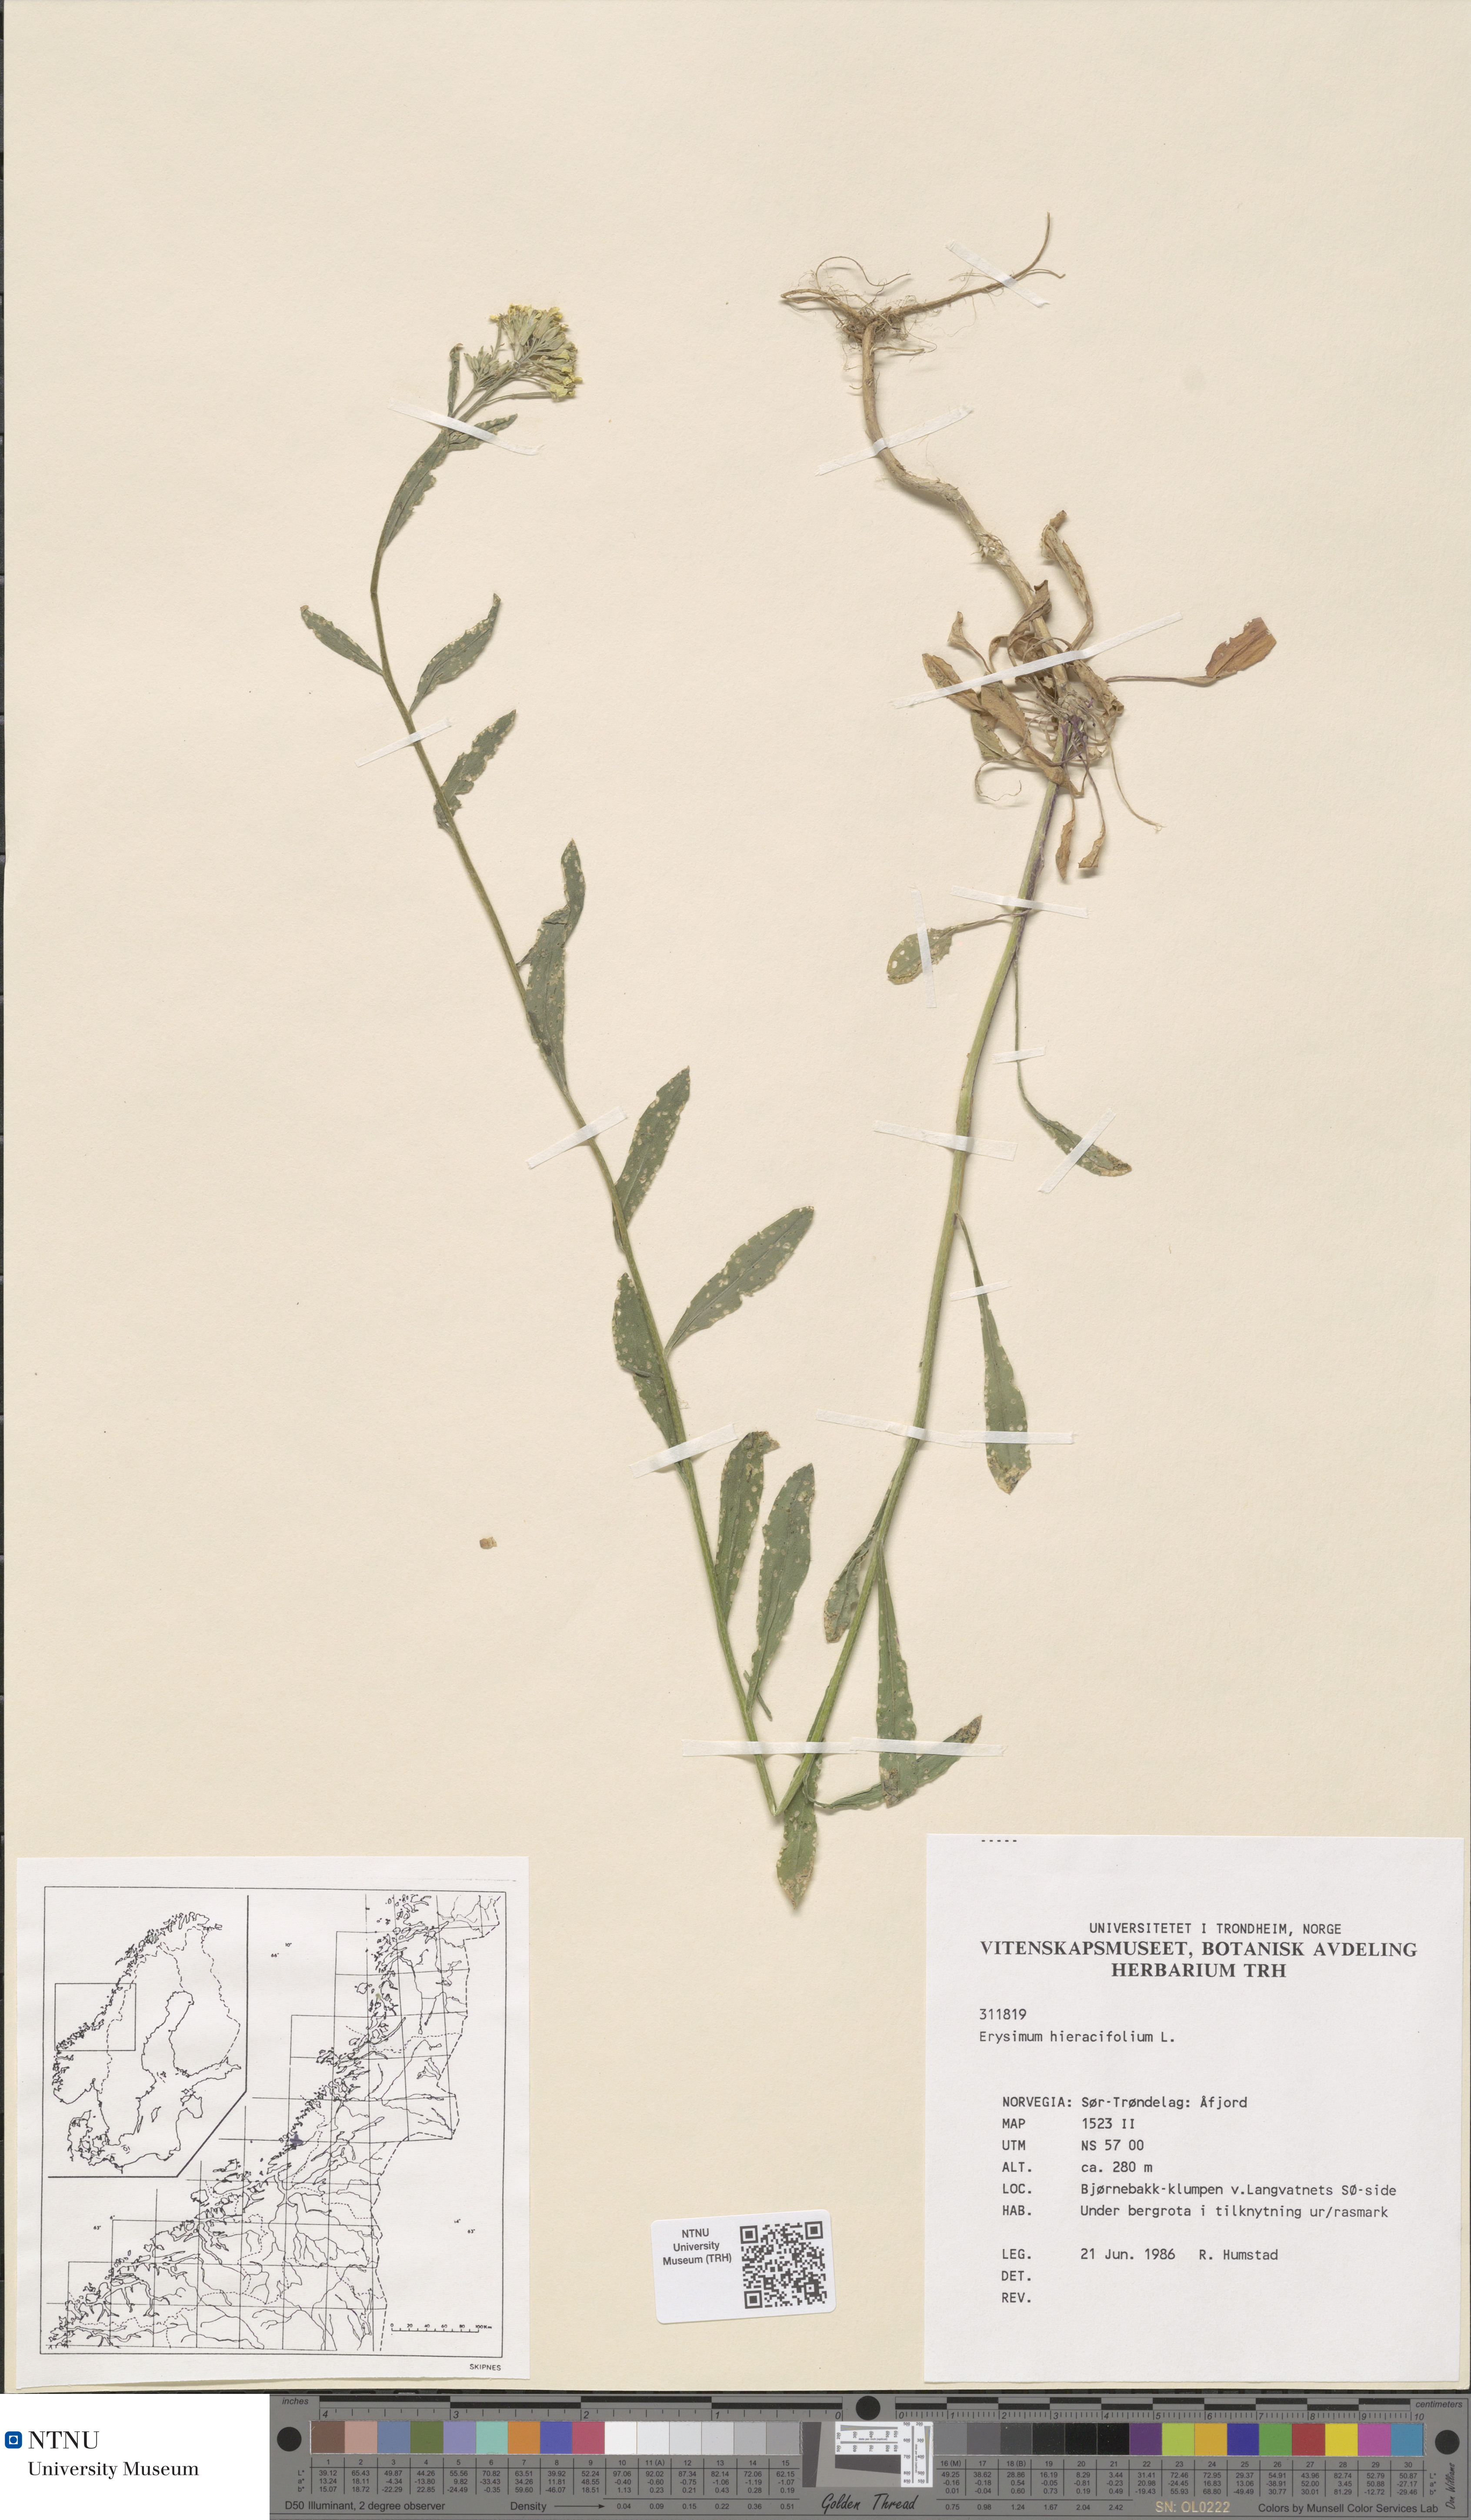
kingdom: Plantae
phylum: Tracheophyta
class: Magnoliopsida
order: Brassicales
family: Brassicaceae
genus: Erysimum
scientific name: Erysimum virgatum
